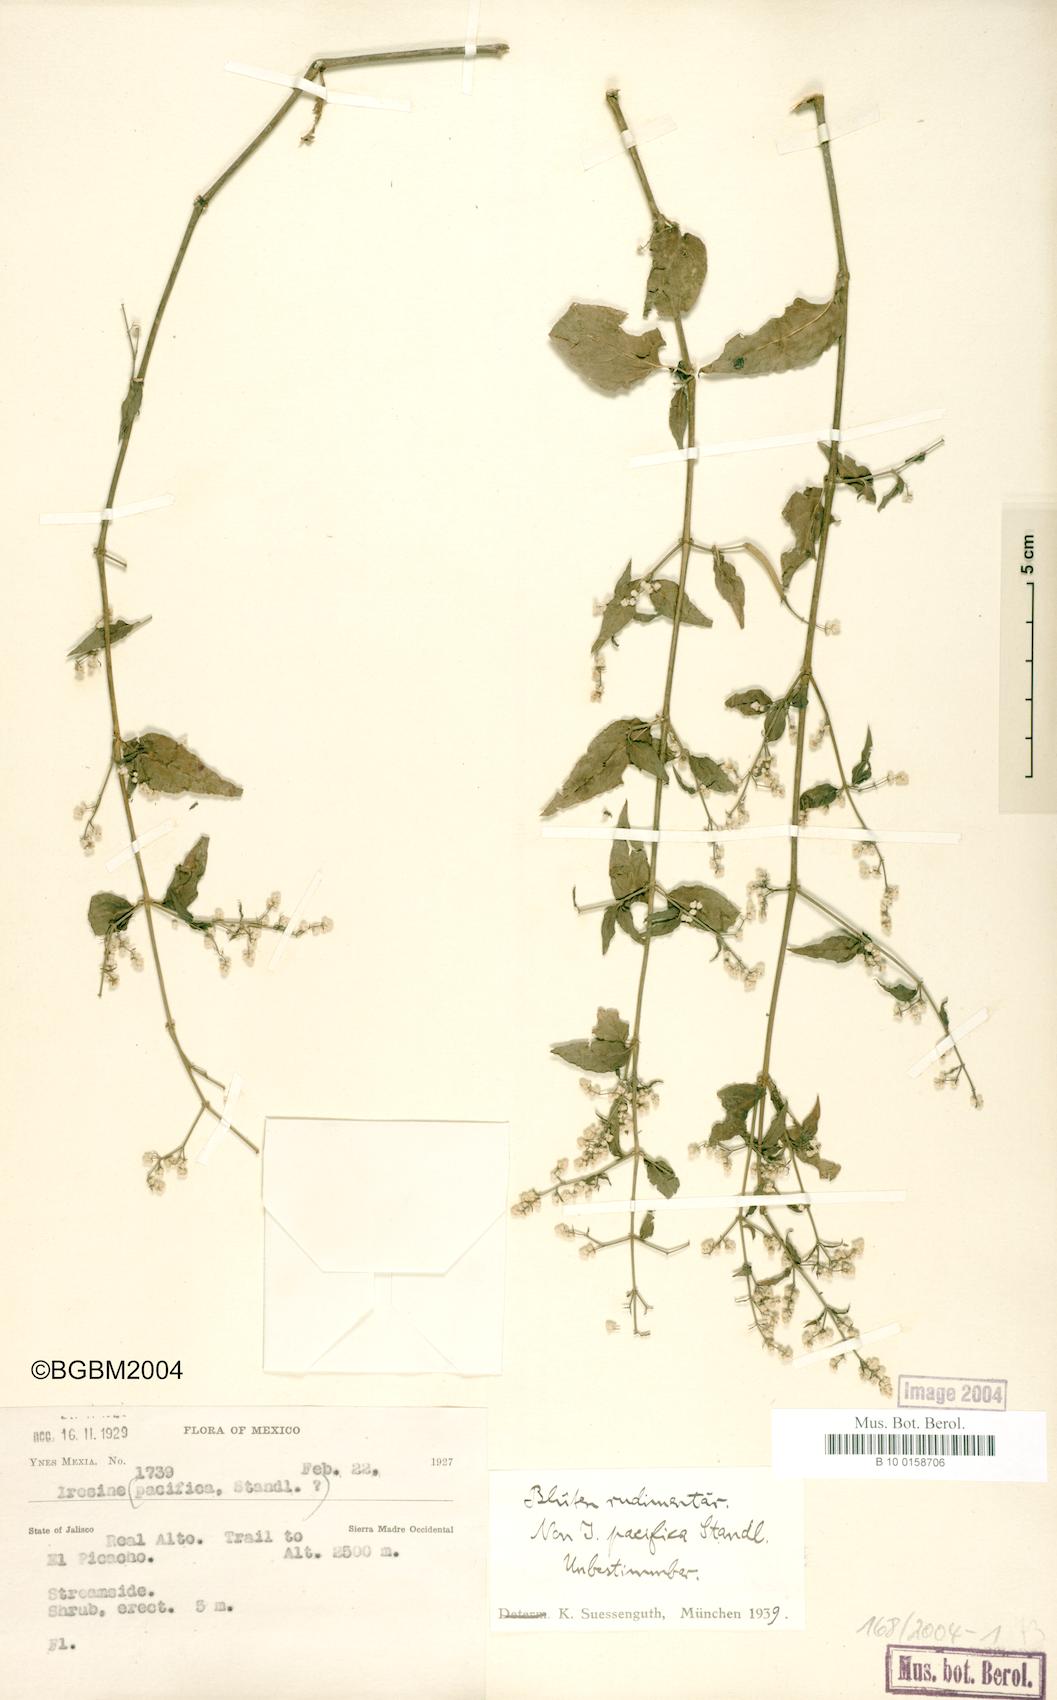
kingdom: Plantae
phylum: Tracheophyta
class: Magnoliopsida
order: Caryophyllales
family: Amaranthaceae
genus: Iresine
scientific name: Iresine
